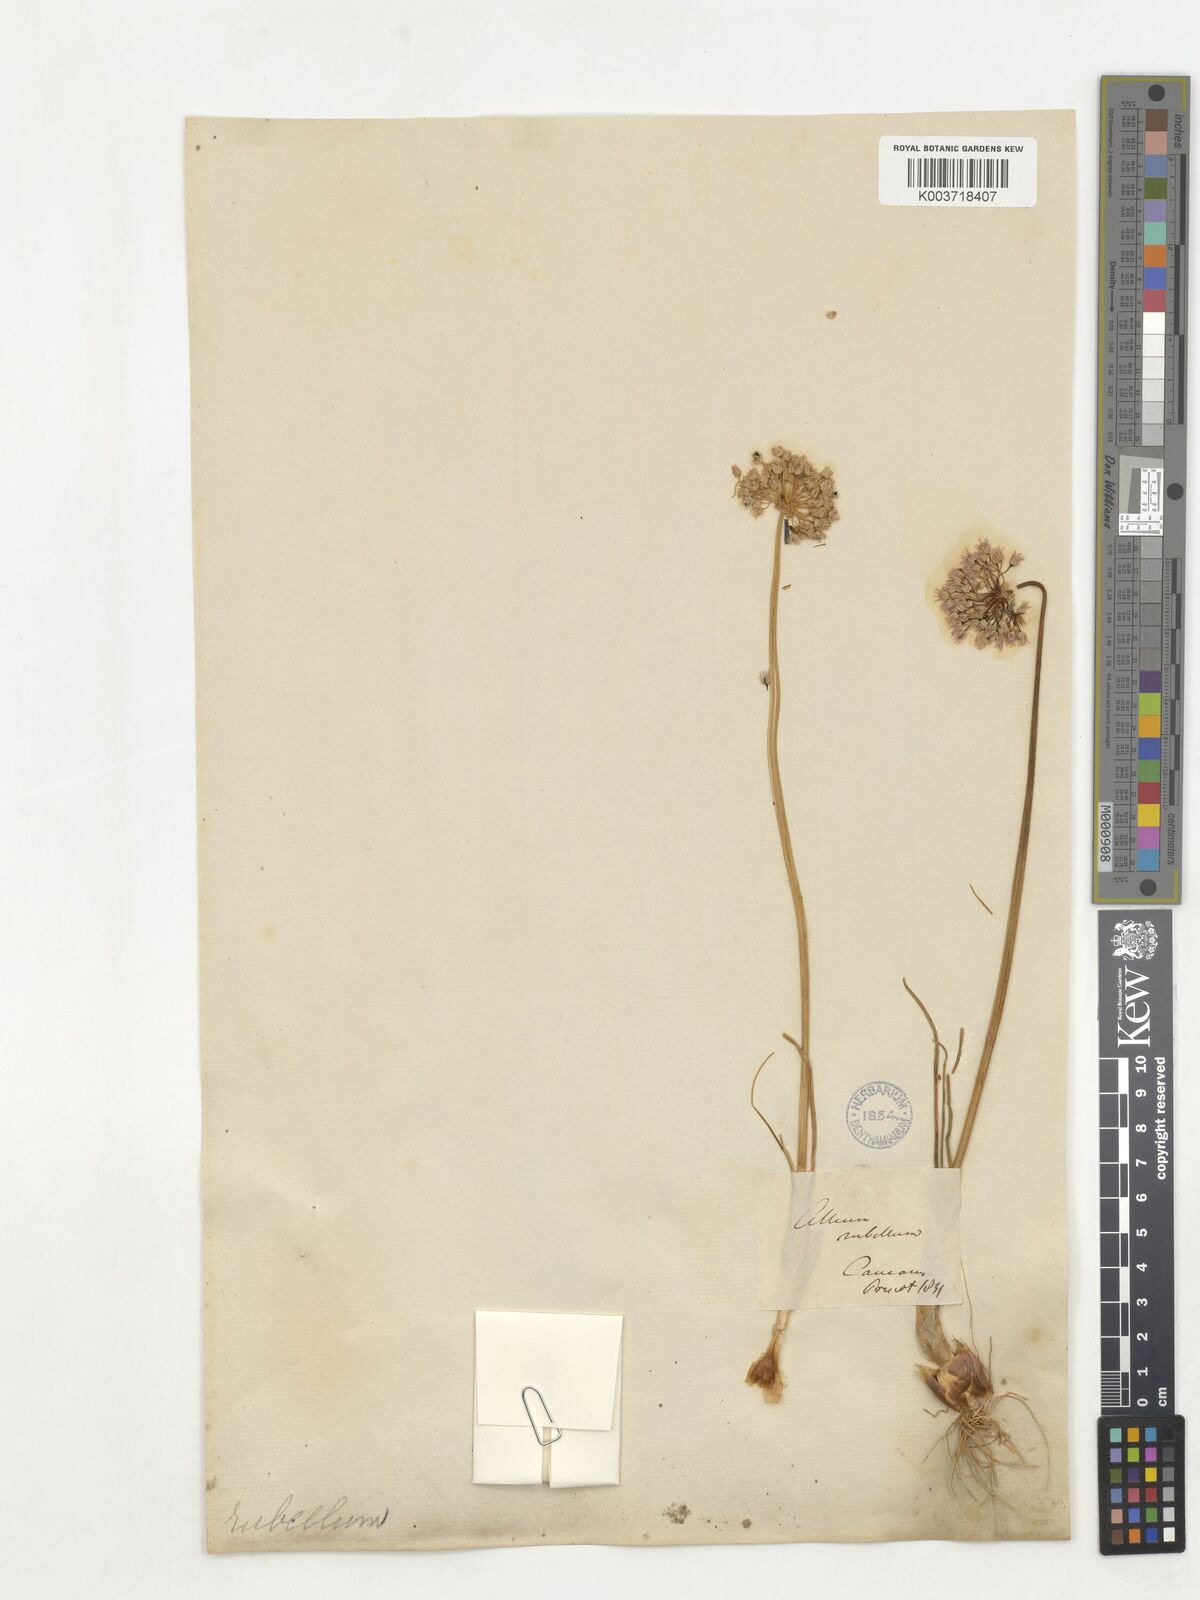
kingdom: Plantae
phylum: Tracheophyta
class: Liliopsida
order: Asparagales
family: Amaryllidaceae
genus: Allium
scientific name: Allium rubellum
